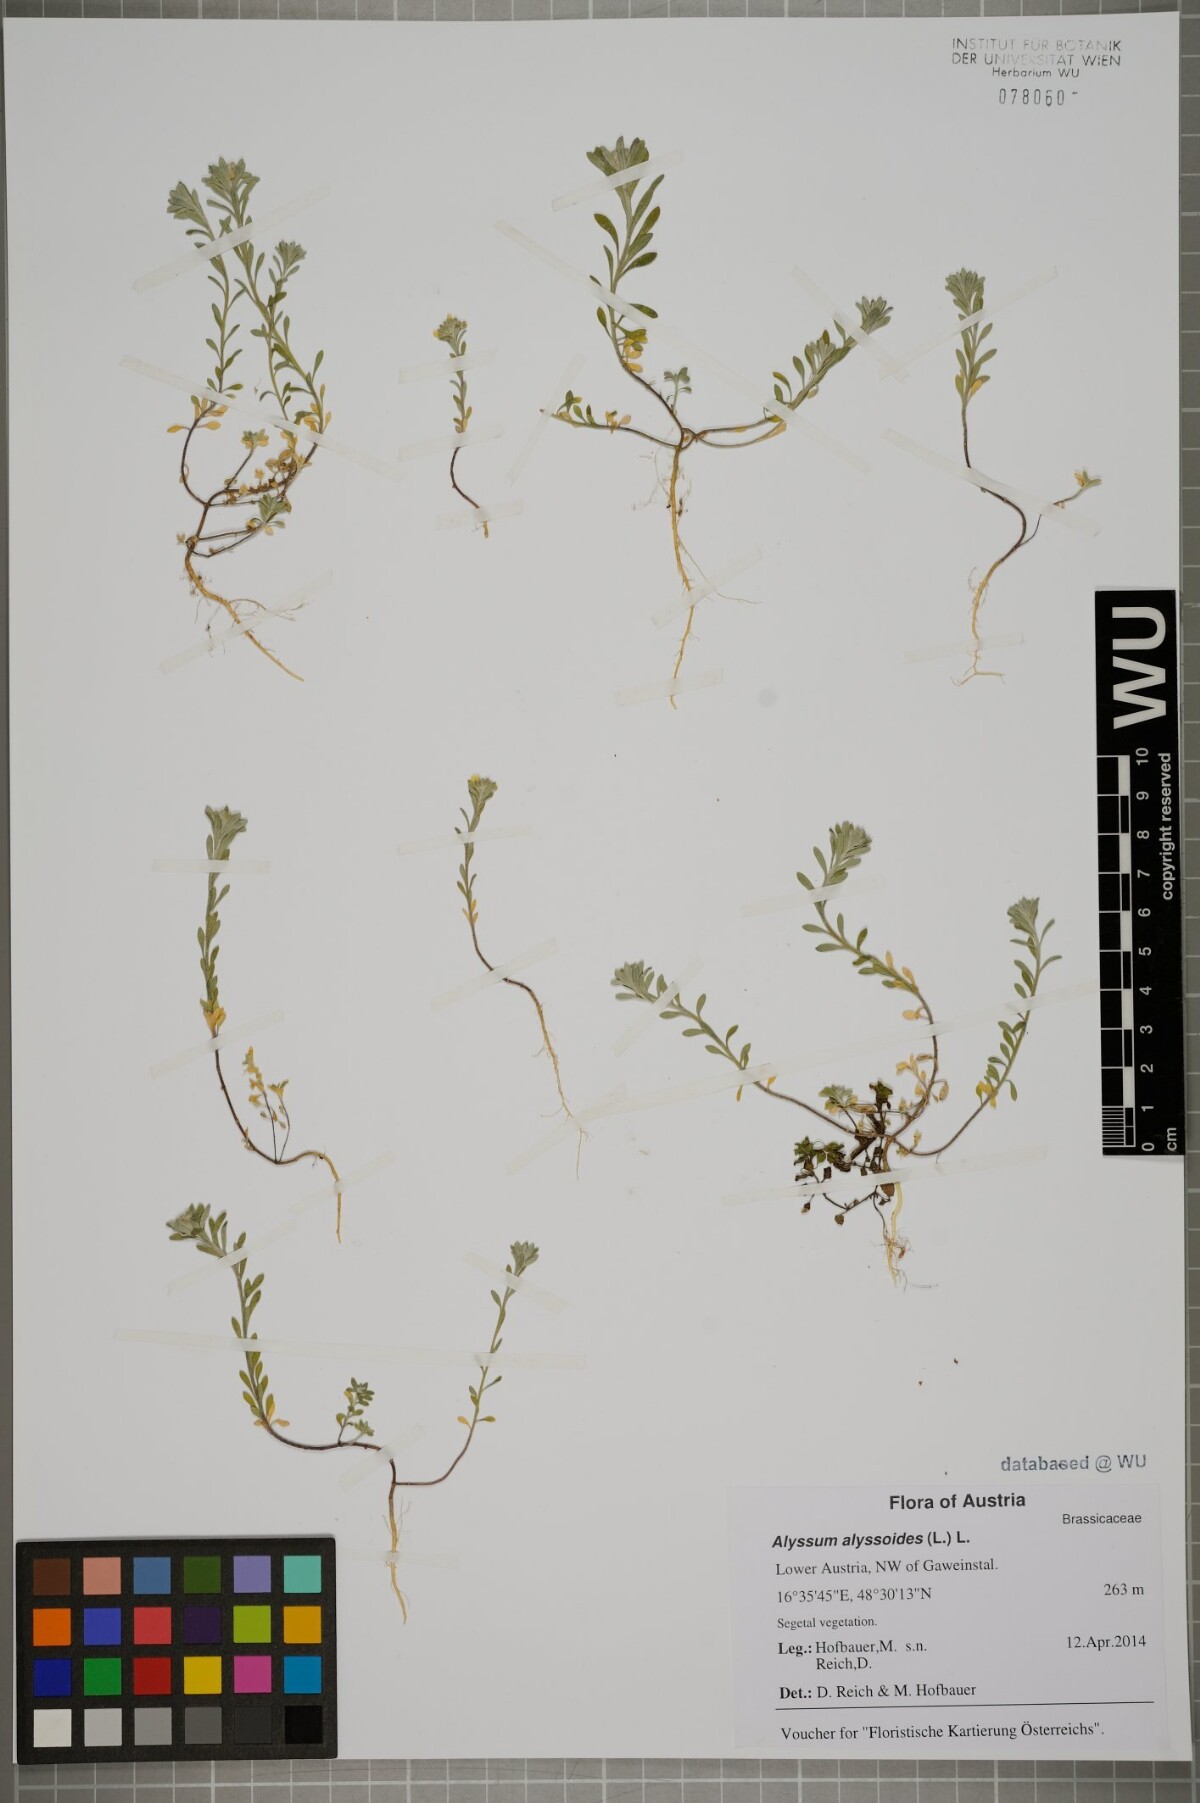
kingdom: Plantae
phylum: Tracheophyta
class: Magnoliopsida
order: Brassicales
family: Brassicaceae
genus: Alyssum
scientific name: Alyssum alyssoides
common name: Small alison
